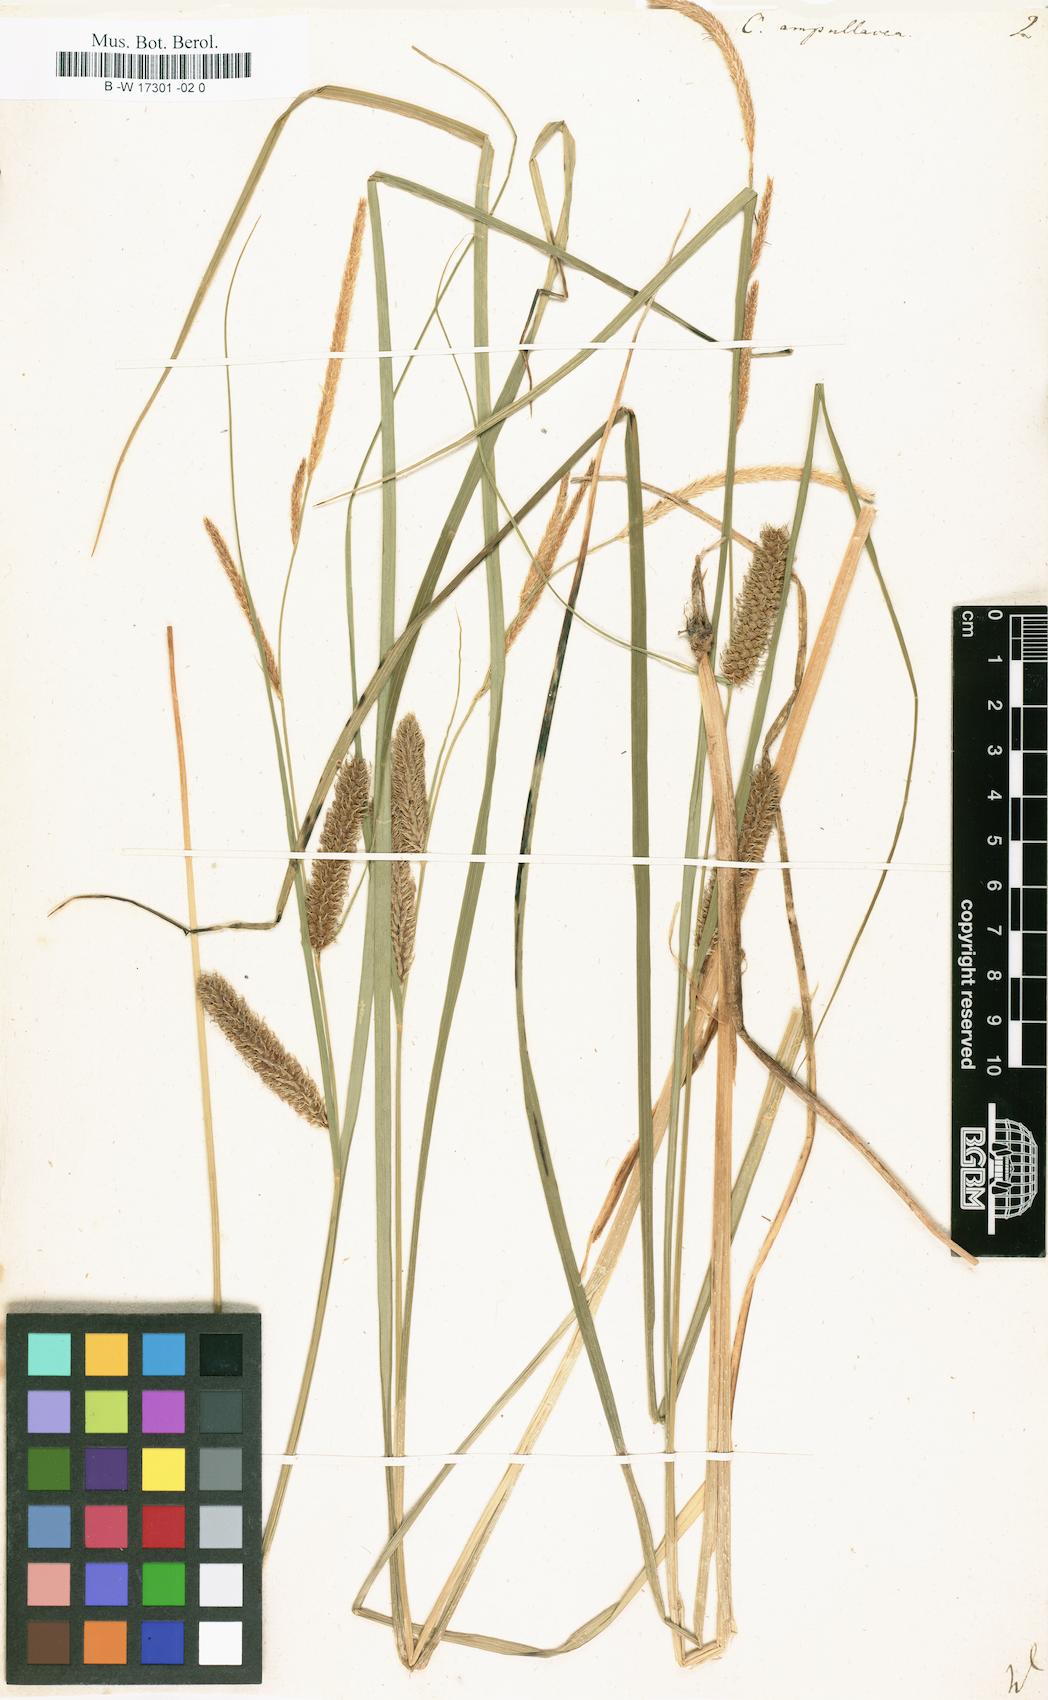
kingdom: Plantae
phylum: Tracheophyta
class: Liliopsida
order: Poales
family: Cyperaceae
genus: Carex
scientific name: Carex rostrata
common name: Bottle sedge
